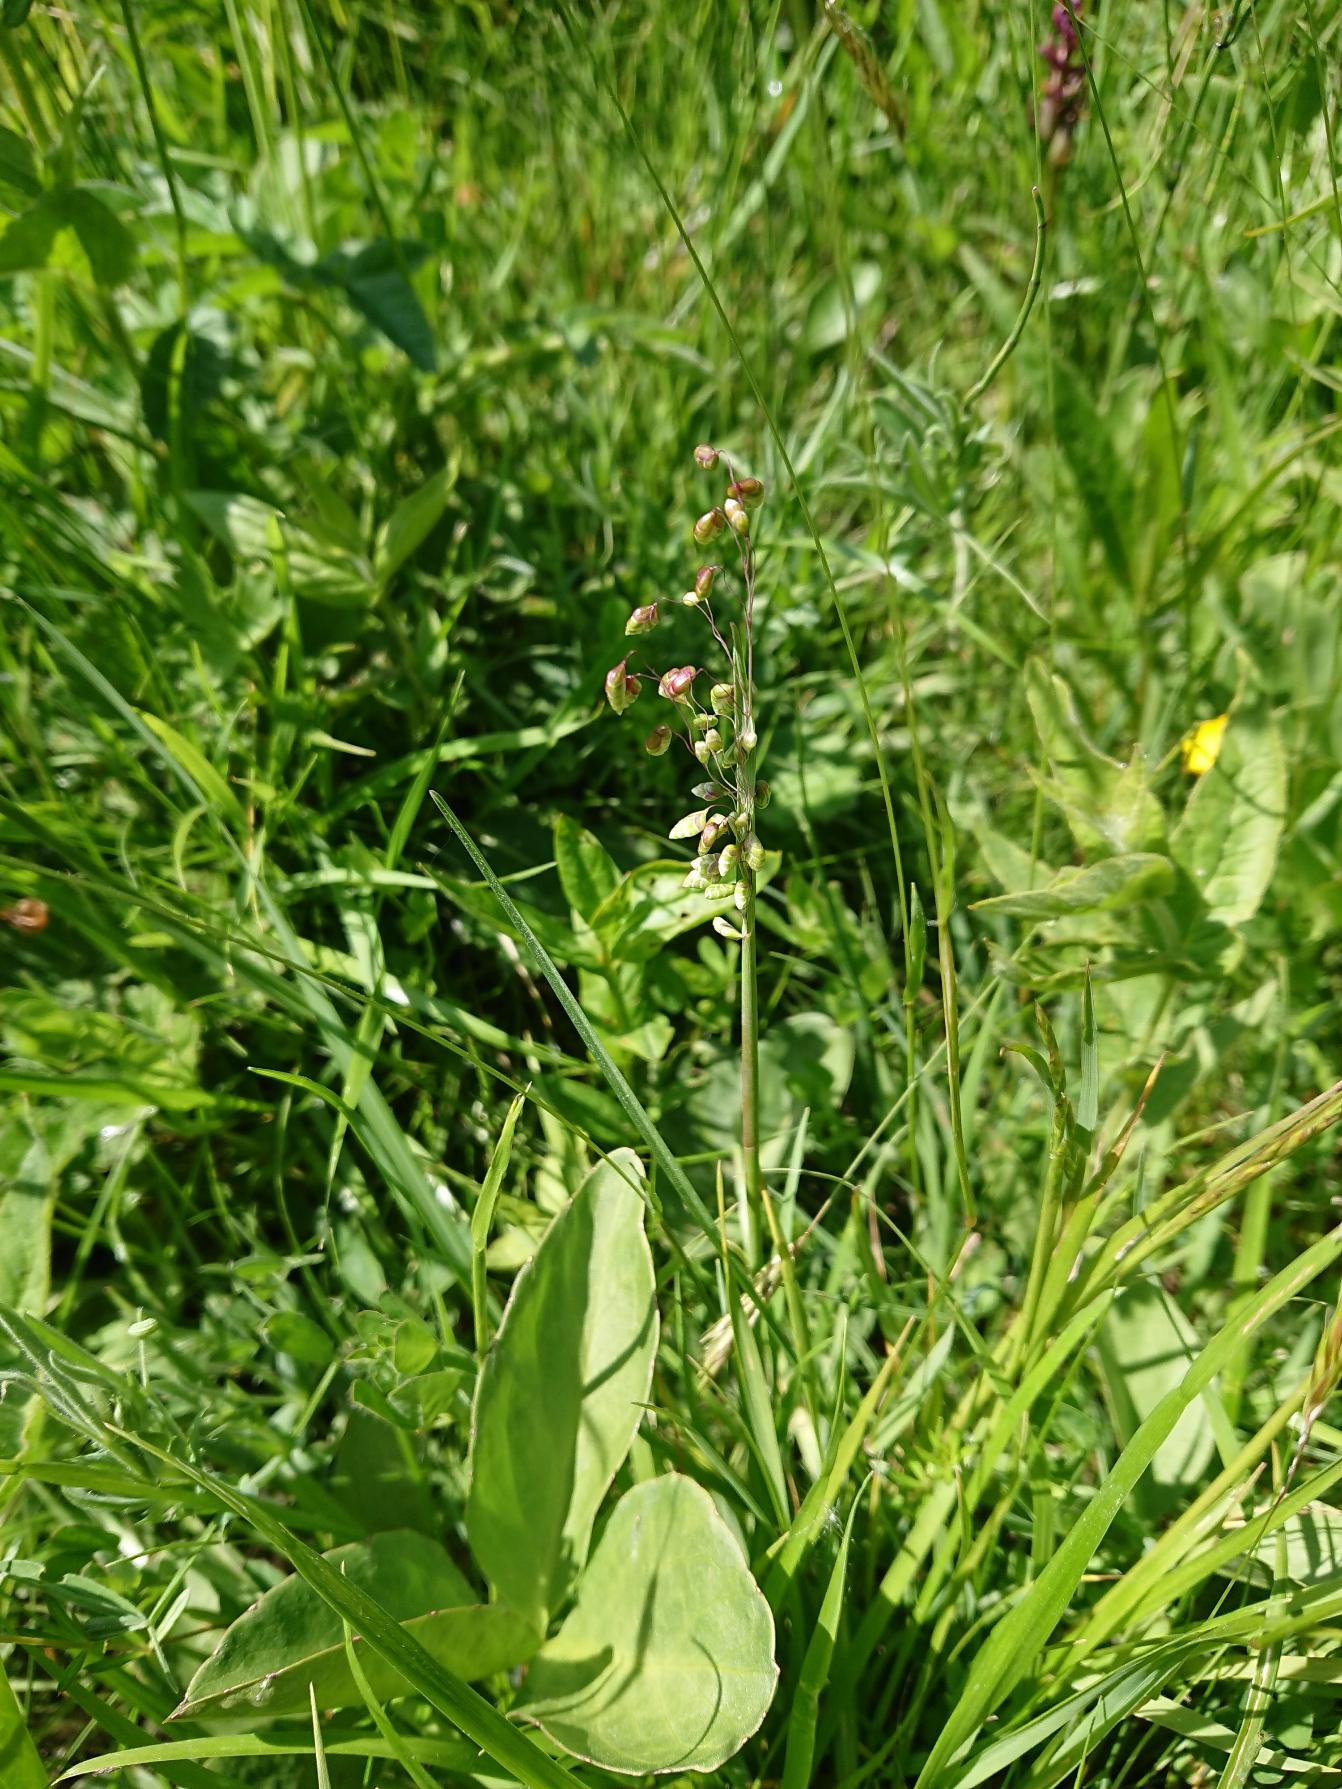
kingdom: Plantae
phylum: Tracheophyta
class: Liliopsida
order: Poales
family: Poaceae
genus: Briza
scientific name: Briza media
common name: Hjertegræs
